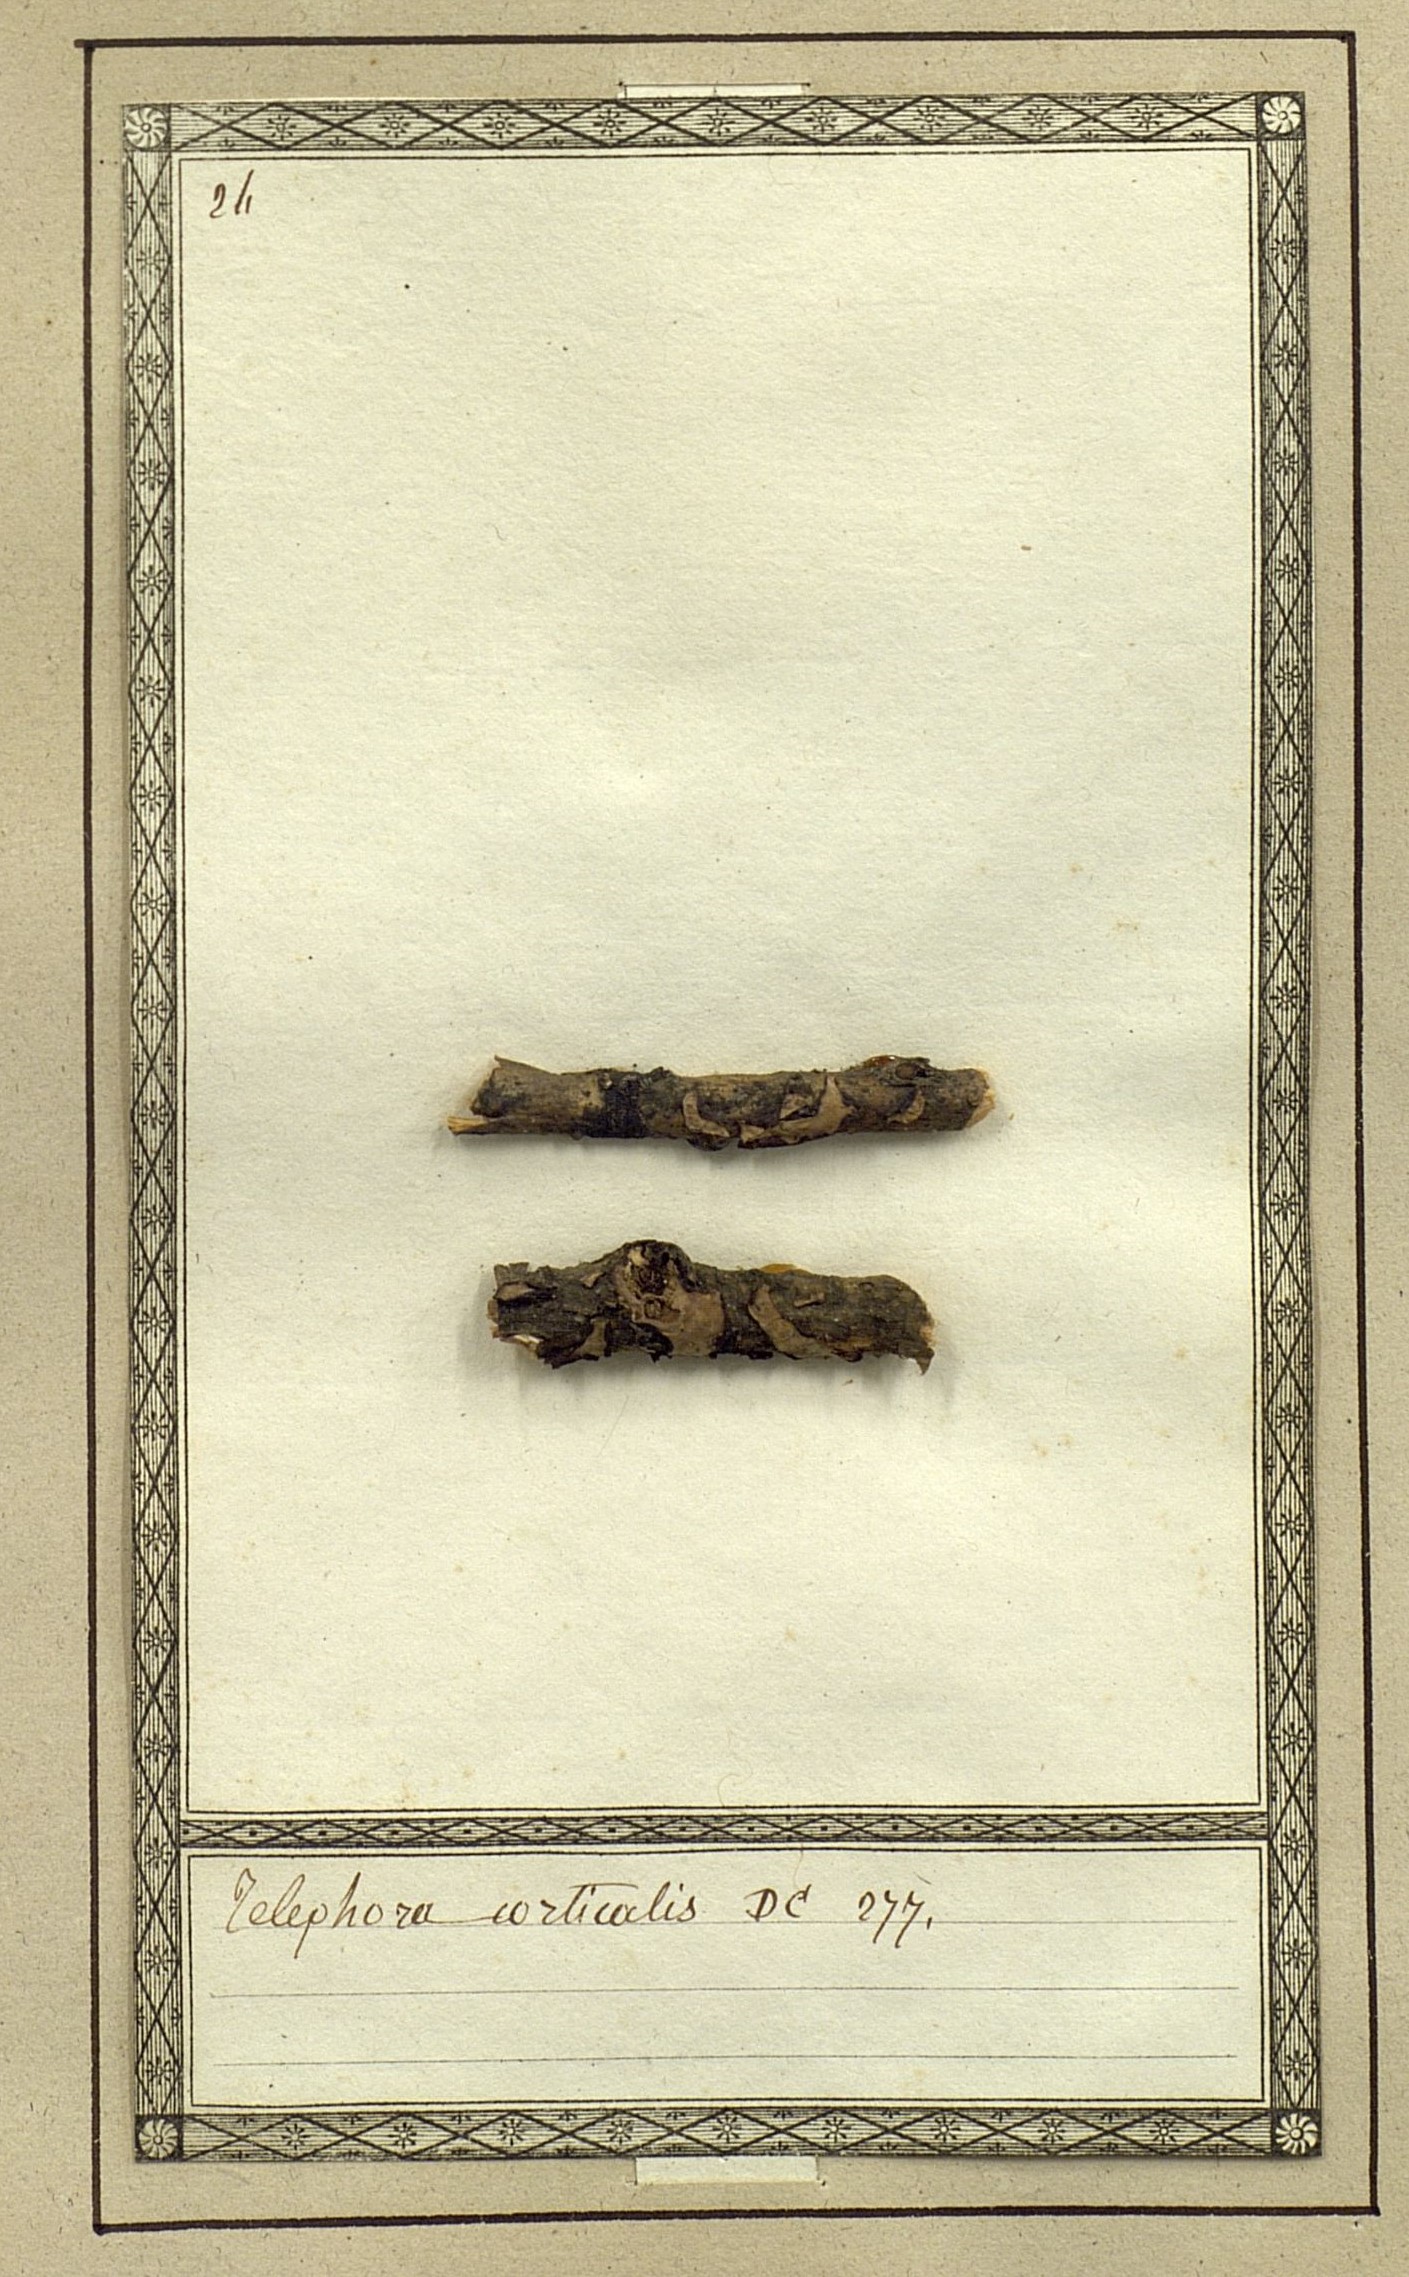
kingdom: Fungi
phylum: Basidiomycota
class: Agaricomycetes
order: Thelephorales
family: Thelephoraceae
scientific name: Thelephoraceae
